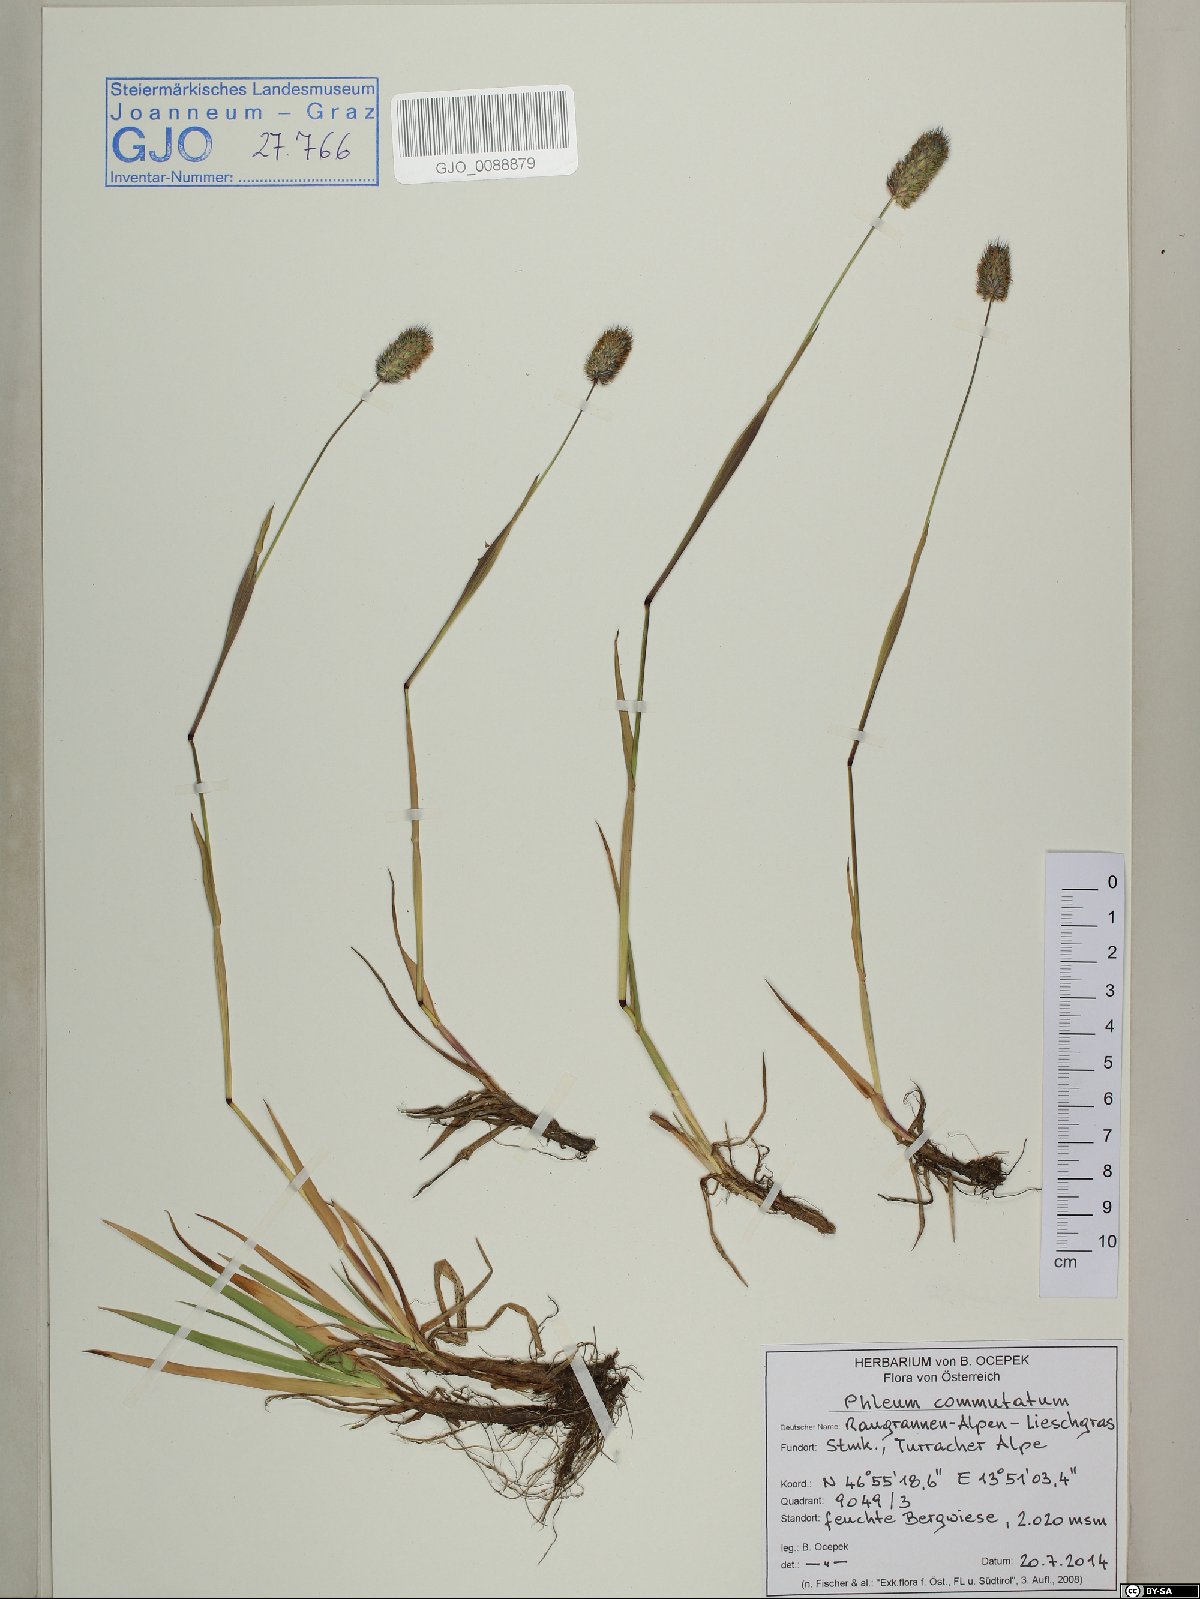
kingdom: Plantae
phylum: Tracheophyta
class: Liliopsida
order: Poales
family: Poaceae
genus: Phleum
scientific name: Phleum alpinum
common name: Alpine cat's-tail
